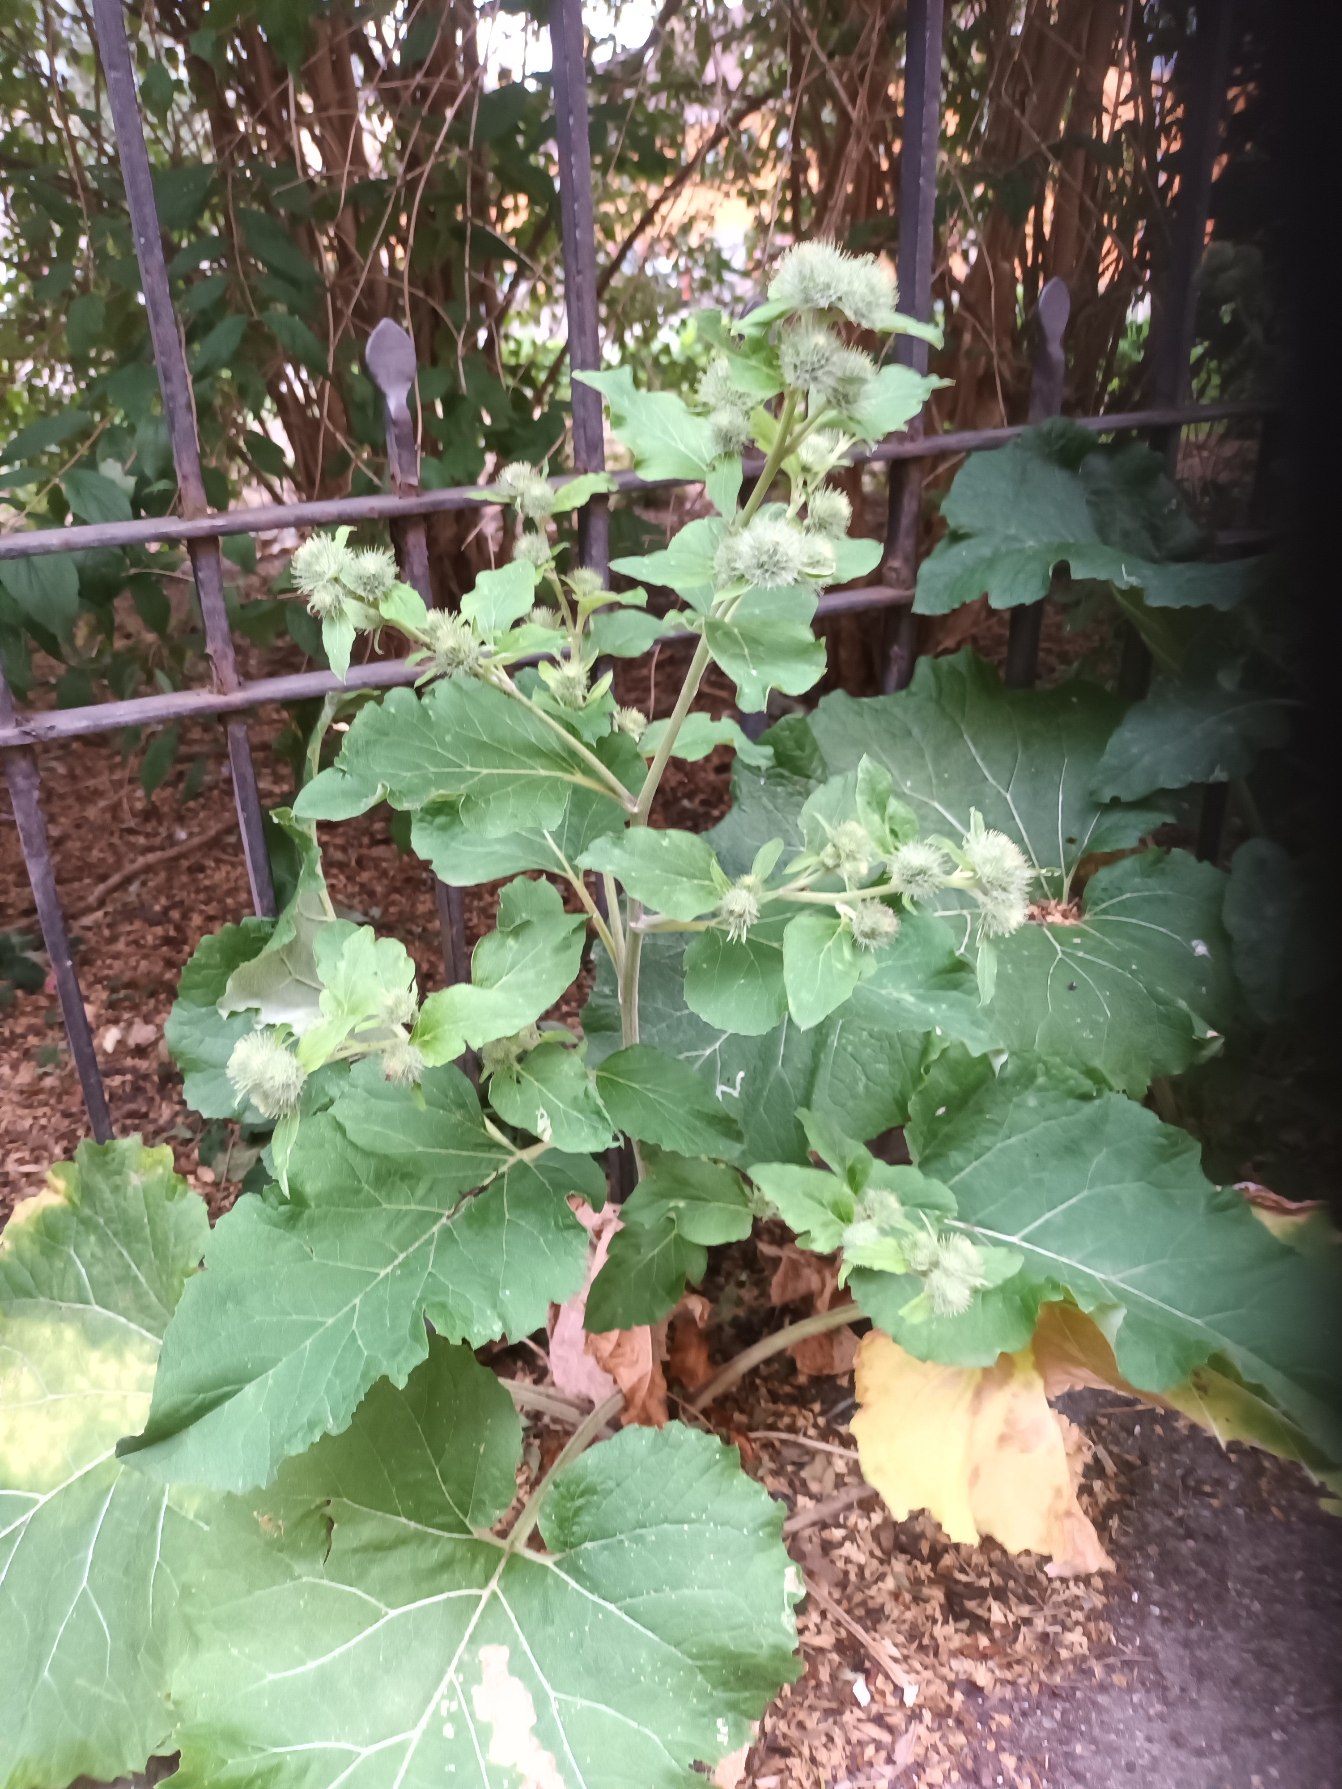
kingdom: Plantae
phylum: Tracheophyta
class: Magnoliopsida
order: Asterales
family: Asteraceae
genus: Arctium
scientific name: Arctium minus
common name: Liden burre
